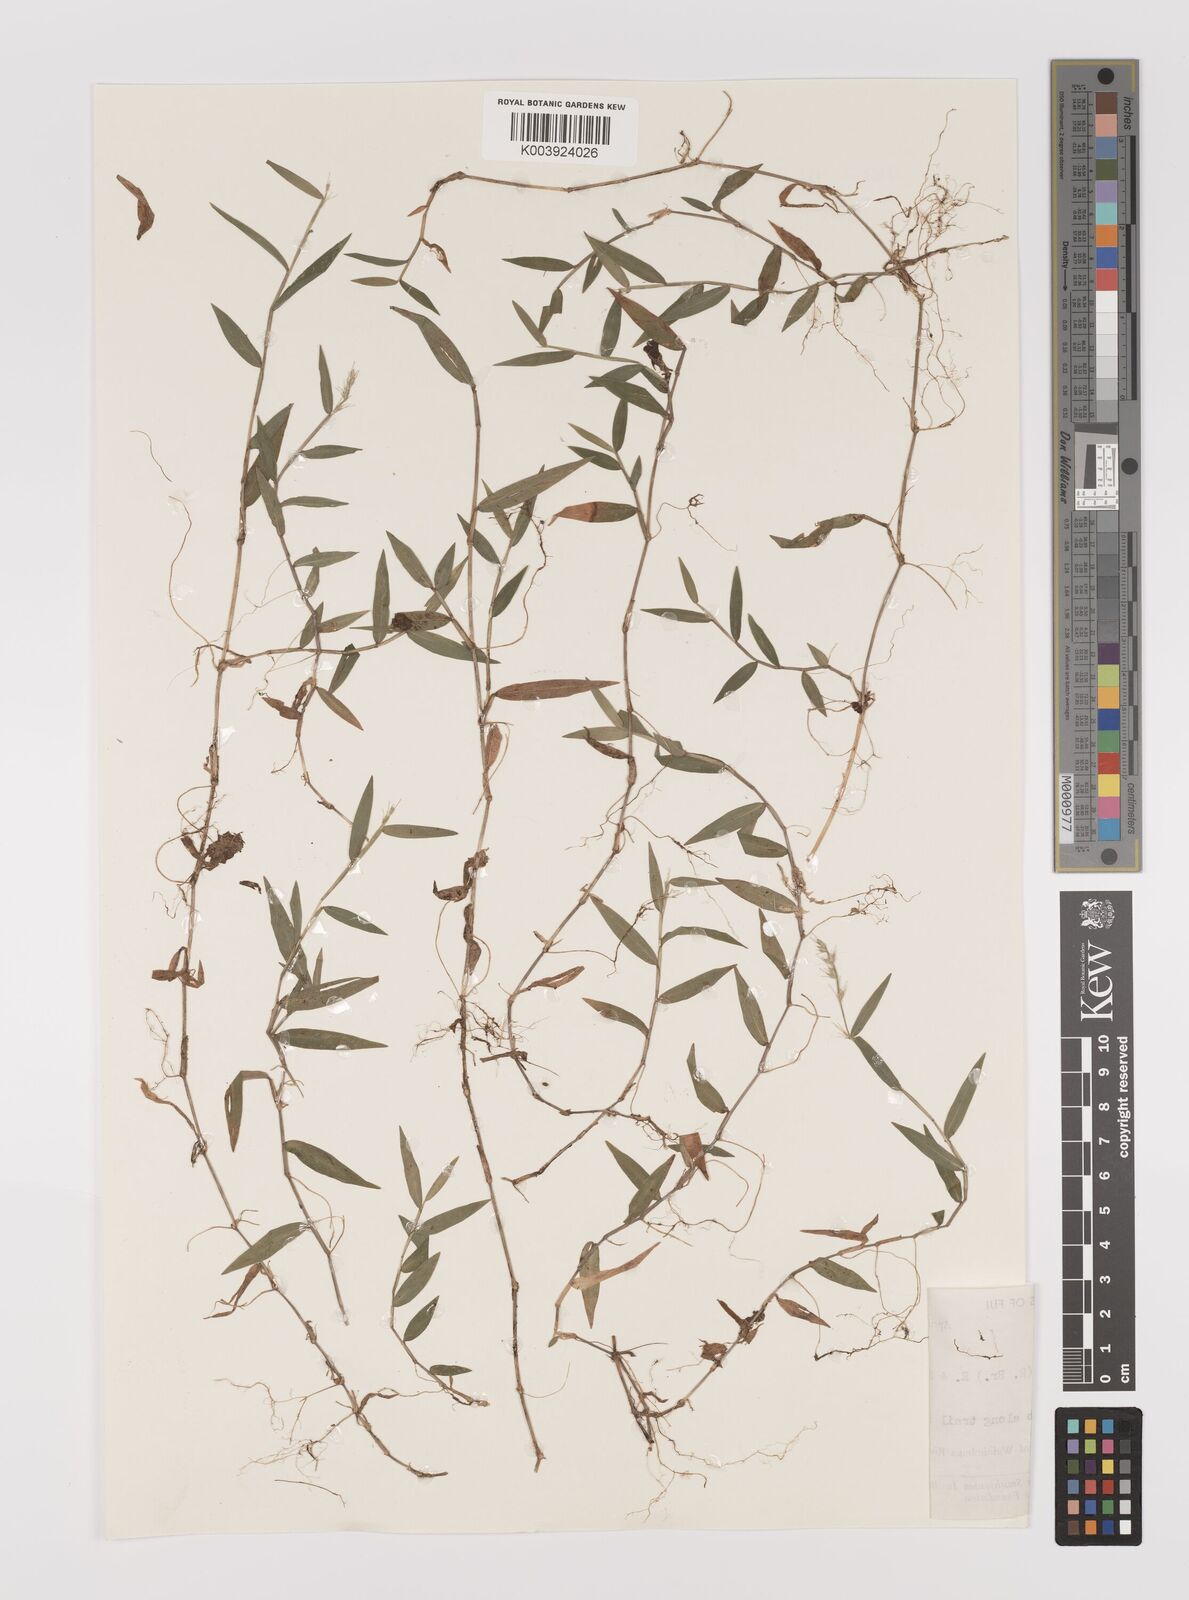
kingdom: Plantae
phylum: Tracheophyta
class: Liliopsida
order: Poales
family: Poaceae
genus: Oplismenus
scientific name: Oplismenus hirtellus
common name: Basketgrass
